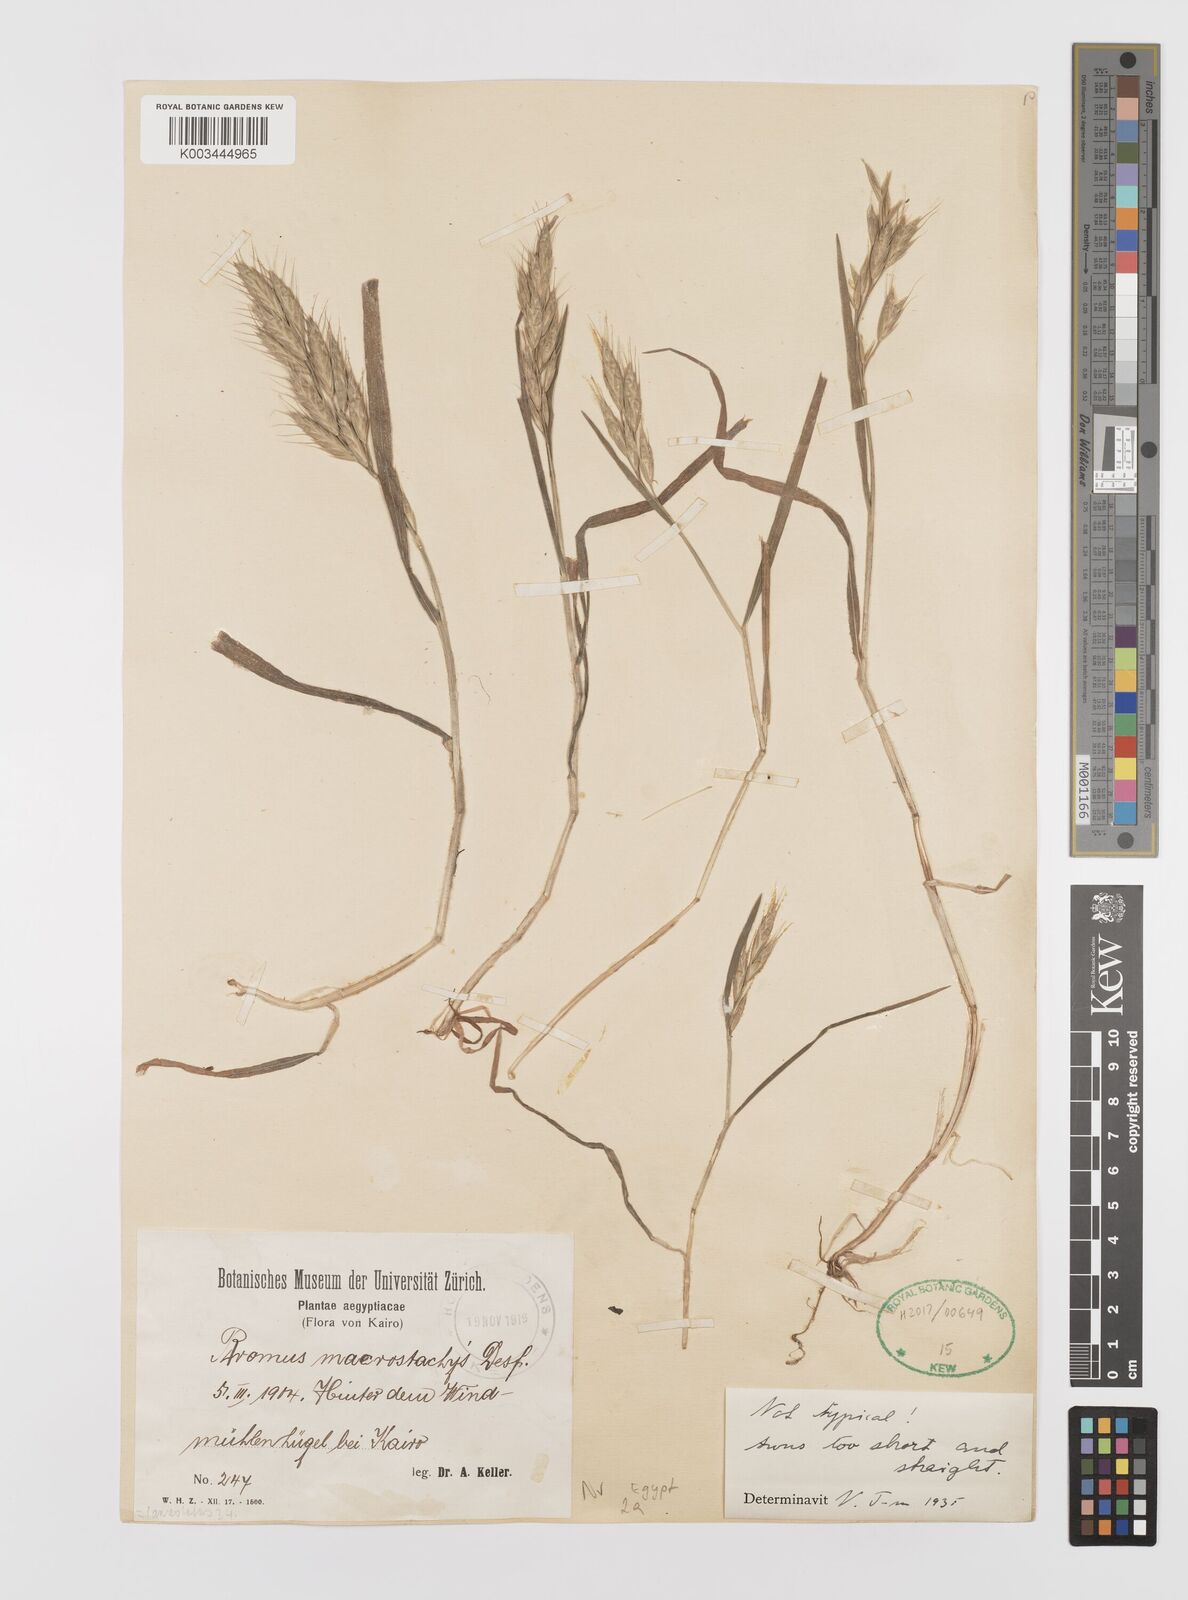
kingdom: Plantae
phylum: Tracheophyta
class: Liliopsida
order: Poales
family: Poaceae
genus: Bromus
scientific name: Bromus lanceolatus
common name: Mediterranean brome
